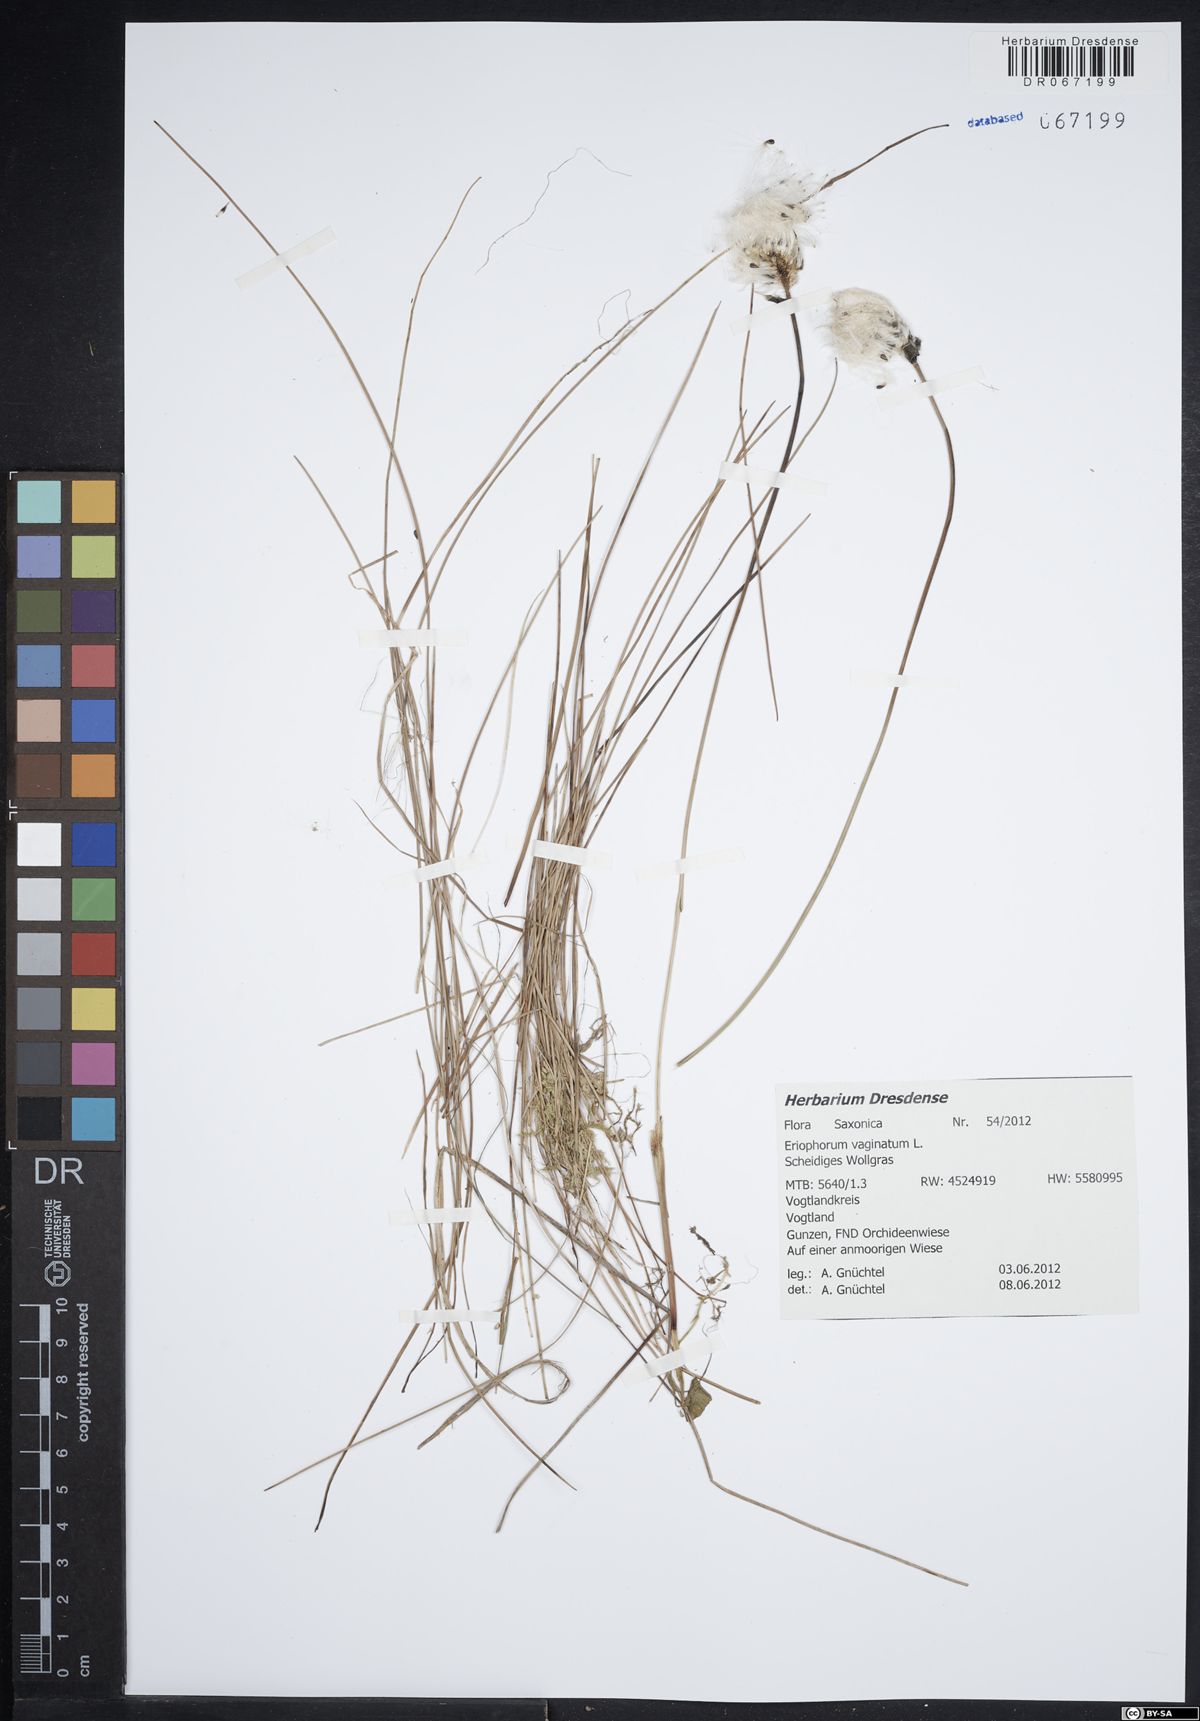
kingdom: Plantae
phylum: Tracheophyta
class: Liliopsida
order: Poales
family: Cyperaceae
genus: Eriophorum
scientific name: Eriophorum vaginatum
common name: Hare's-tail cottongrass
